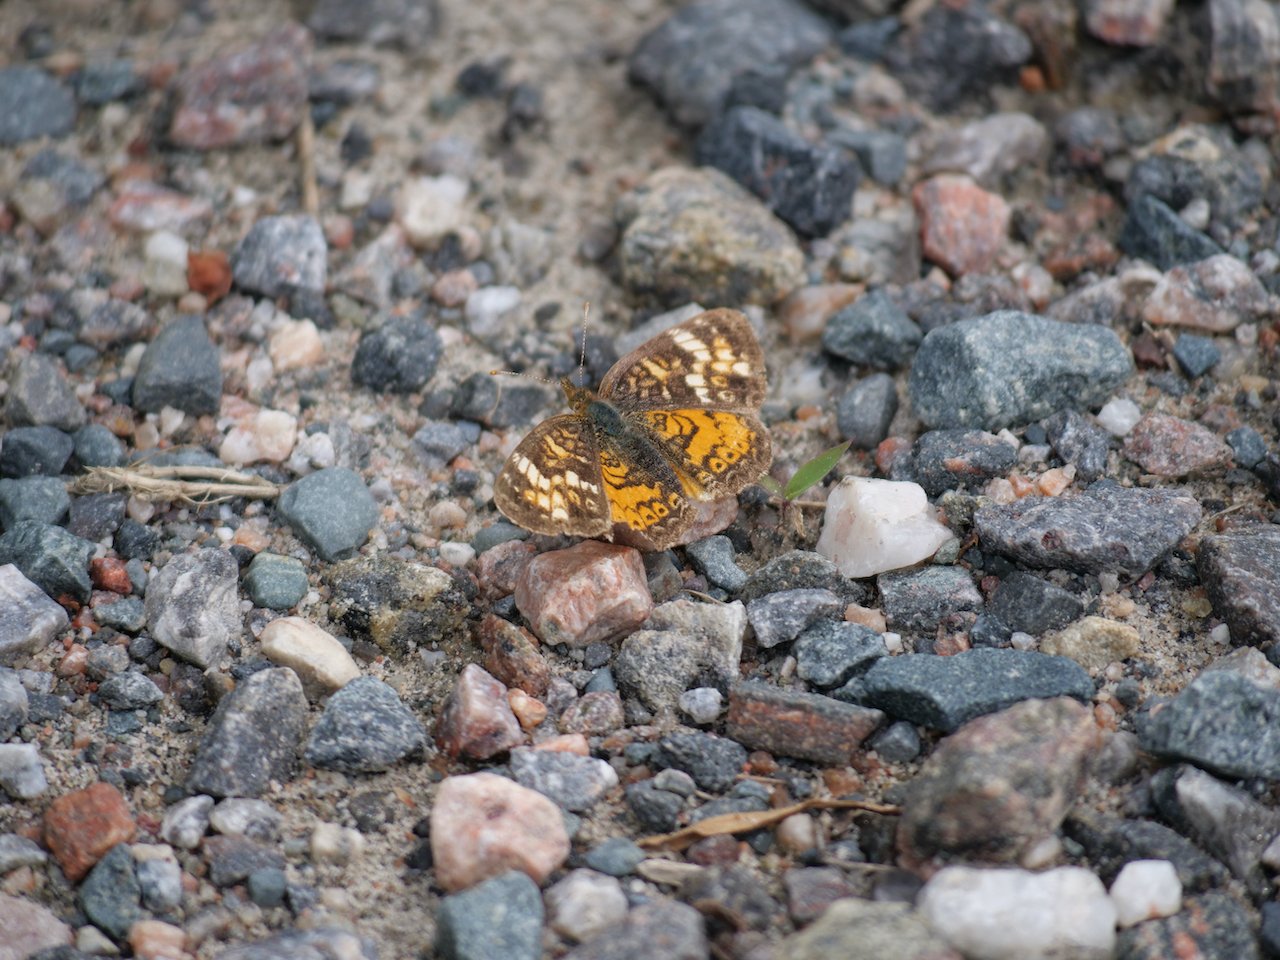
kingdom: Animalia
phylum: Arthropoda
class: Insecta
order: Lepidoptera
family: Nymphalidae
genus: Phyciodes
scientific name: Phyciodes tharos
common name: Northern Crescent
